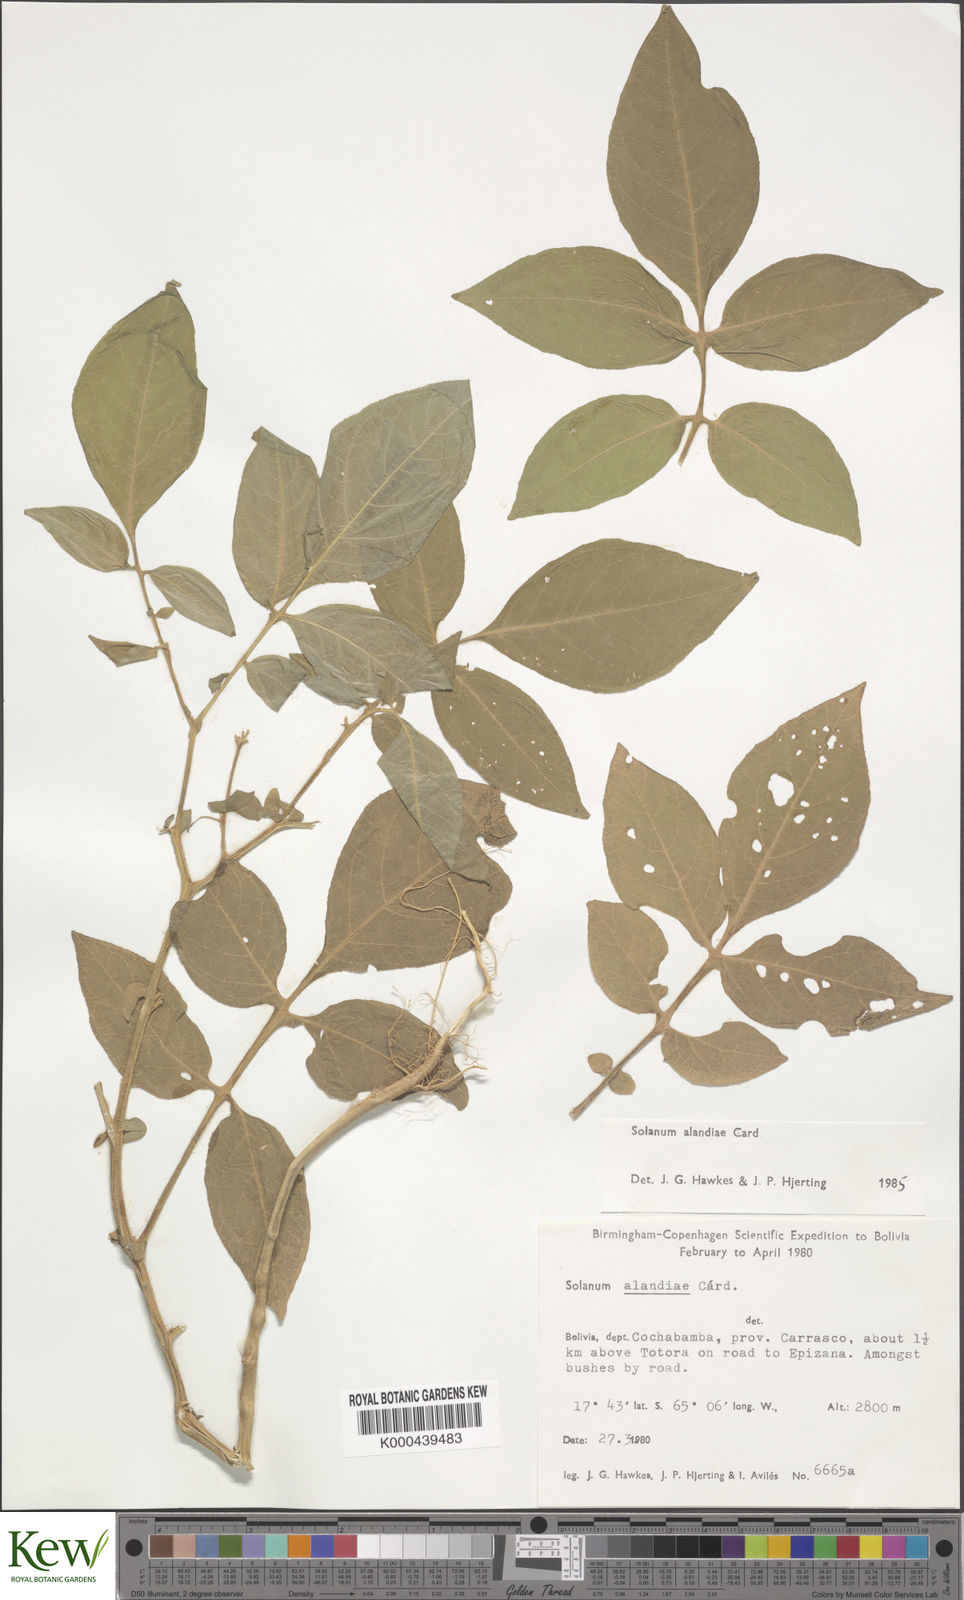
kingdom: Plantae
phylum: Tracheophyta
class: Magnoliopsida
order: Solanales
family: Solanaceae
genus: Solanum
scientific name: Solanum brevicaule
